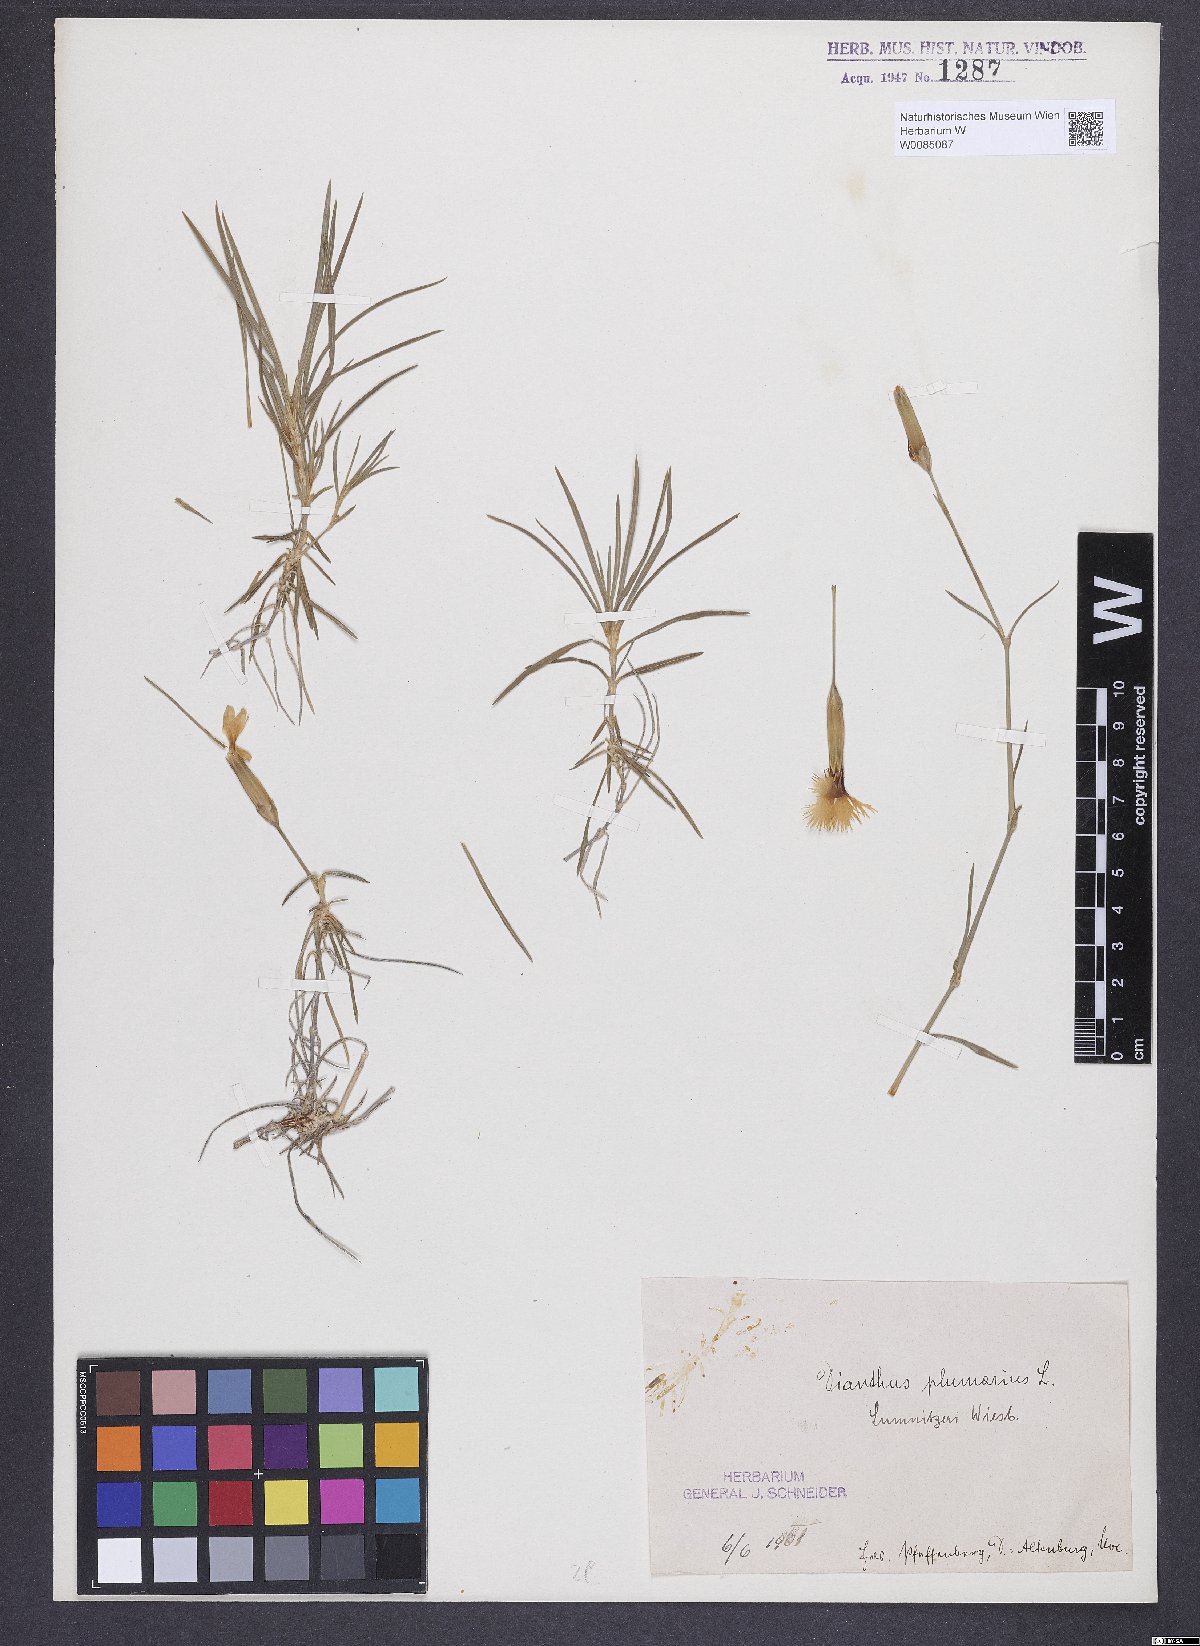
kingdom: Plantae
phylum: Tracheophyta
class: Magnoliopsida
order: Caryophyllales
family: Caryophyllaceae
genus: Dianthus
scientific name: Dianthus praecox
